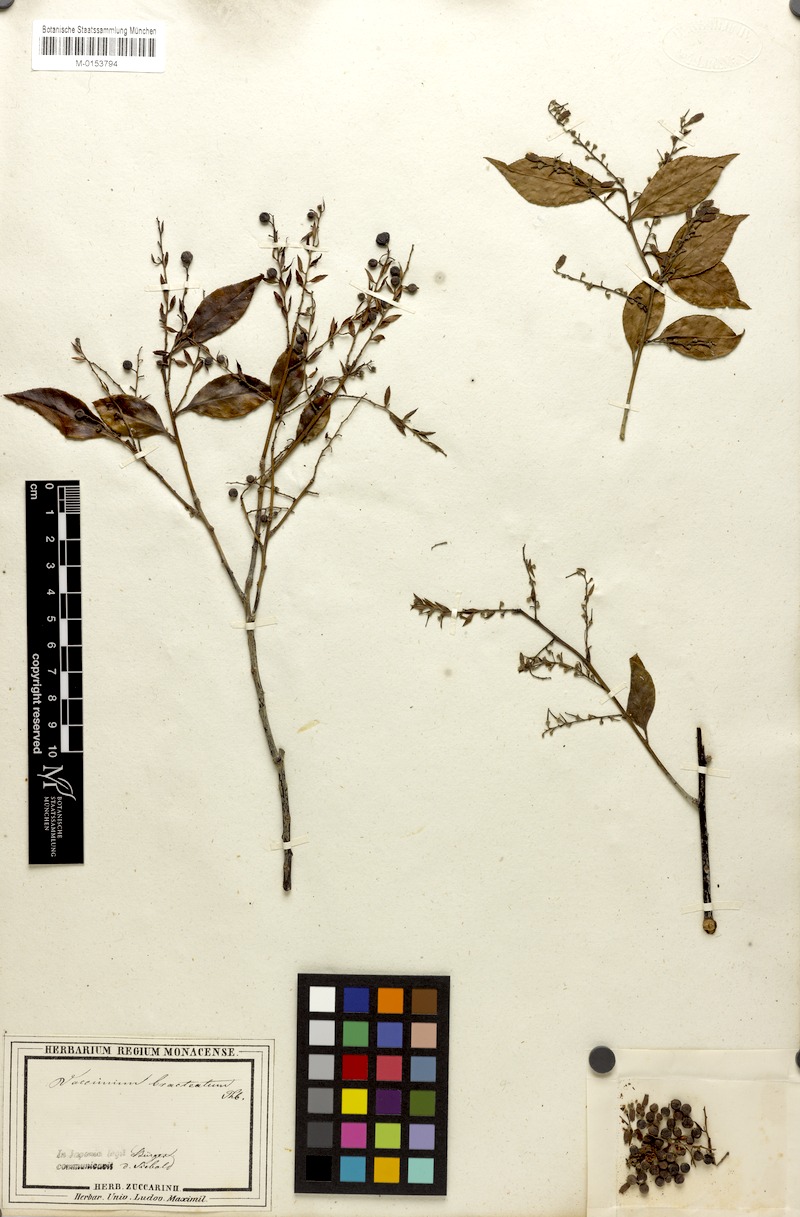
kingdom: Plantae
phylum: Tracheophyta
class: Magnoliopsida
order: Ericales
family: Ericaceae
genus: Vaccinium
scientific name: Vaccinium bracteatum
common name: Sea bilberry
